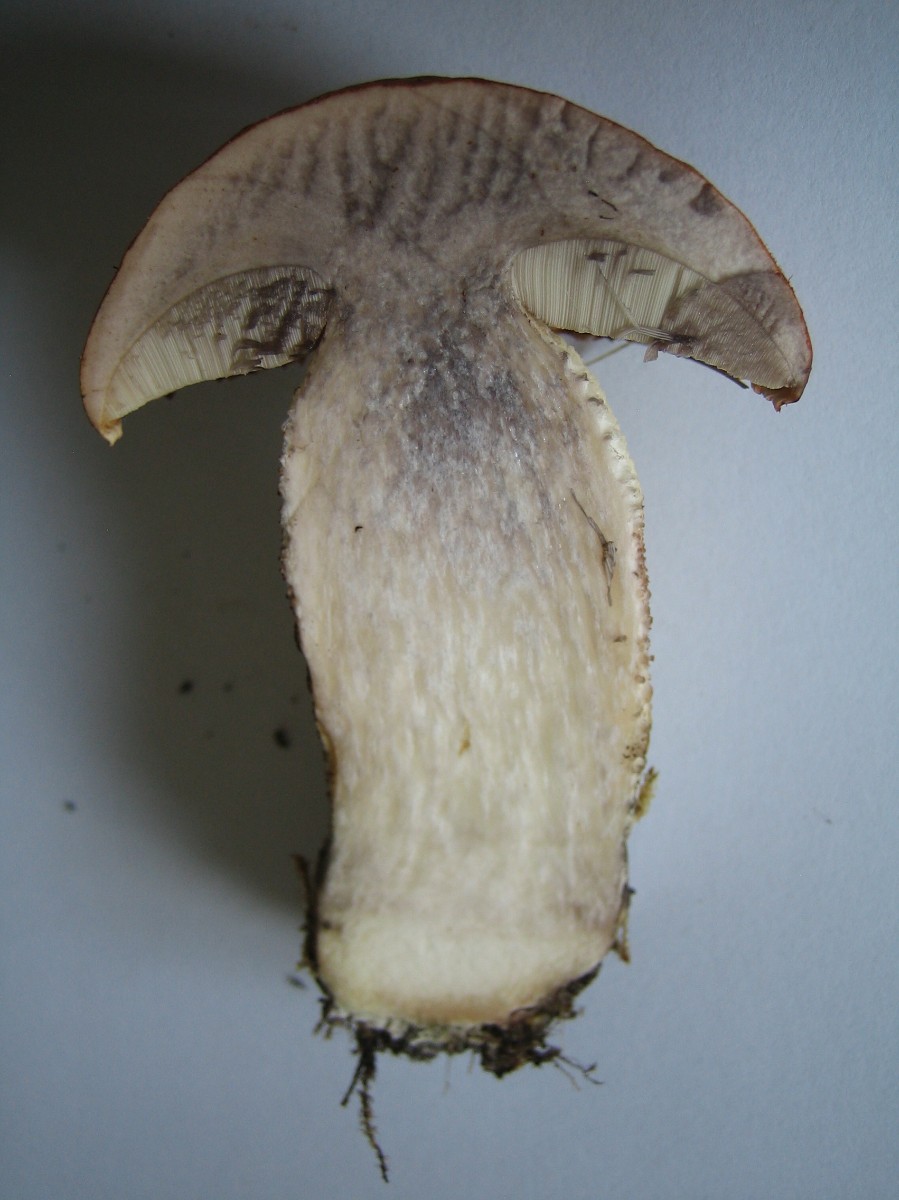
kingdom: Fungi
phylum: Basidiomycota
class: Agaricomycetes
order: Boletales
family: Boletaceae
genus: Leccinum
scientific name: Leccinum aurantiacum
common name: rustrød skælrørhat
